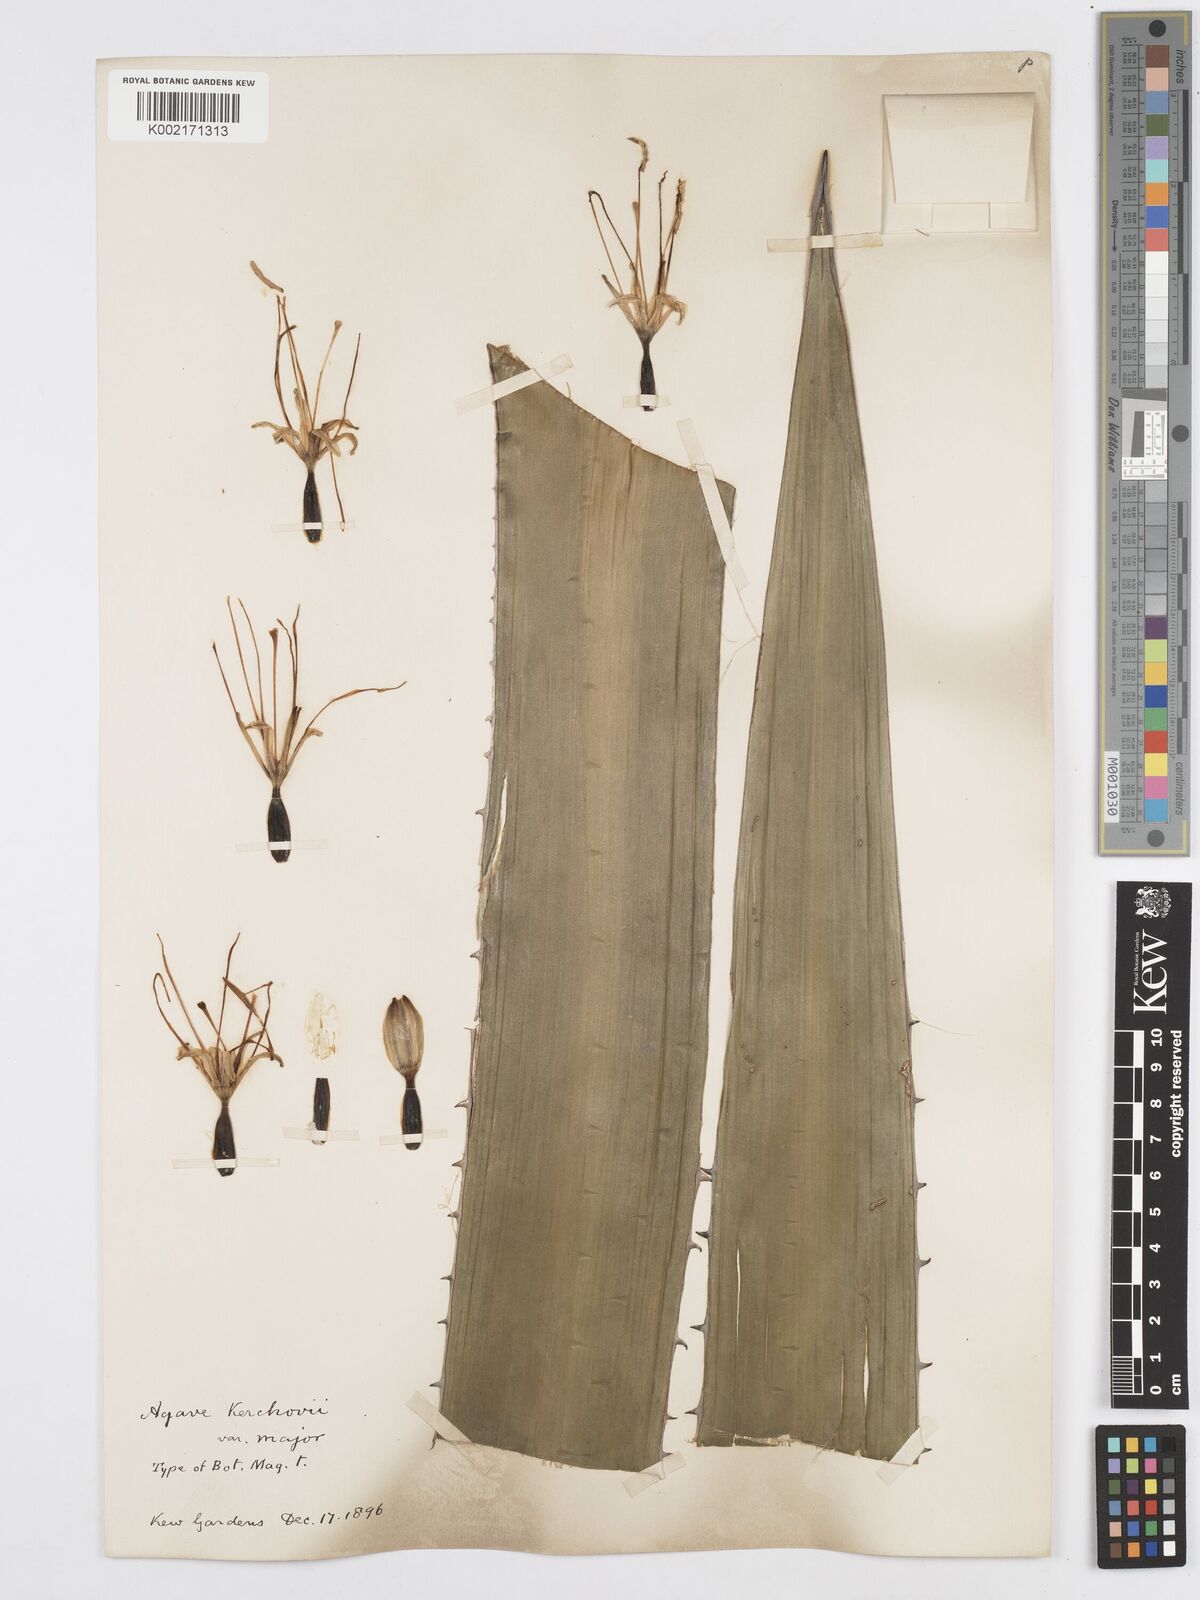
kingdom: Plantae
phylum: Tracheophyta
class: Liliopsida
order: Asparagales
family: Asparagaceae
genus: Agave
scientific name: Agave kerchovei
